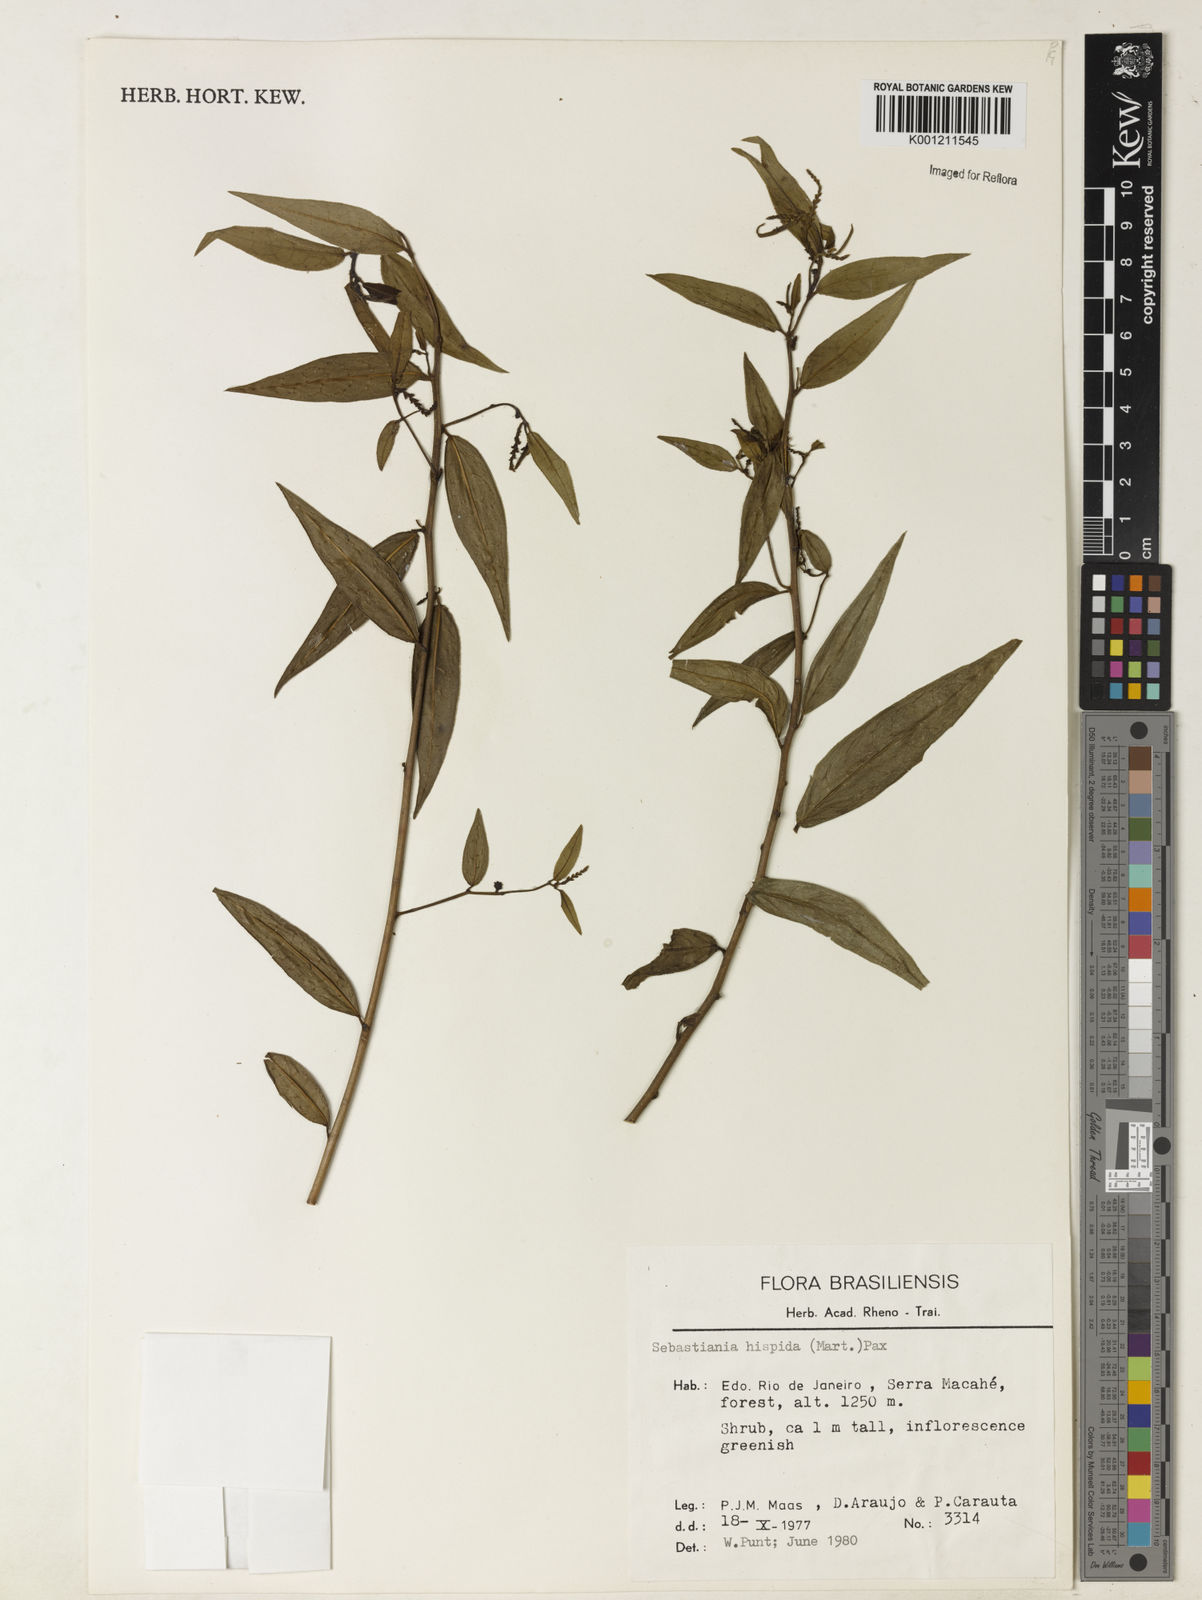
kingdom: Plantae
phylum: Tracheophyta
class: Magnoliopsida
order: Malpighiales
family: Euphorbiaceae
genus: Microstachys
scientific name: Microstachys hispida
